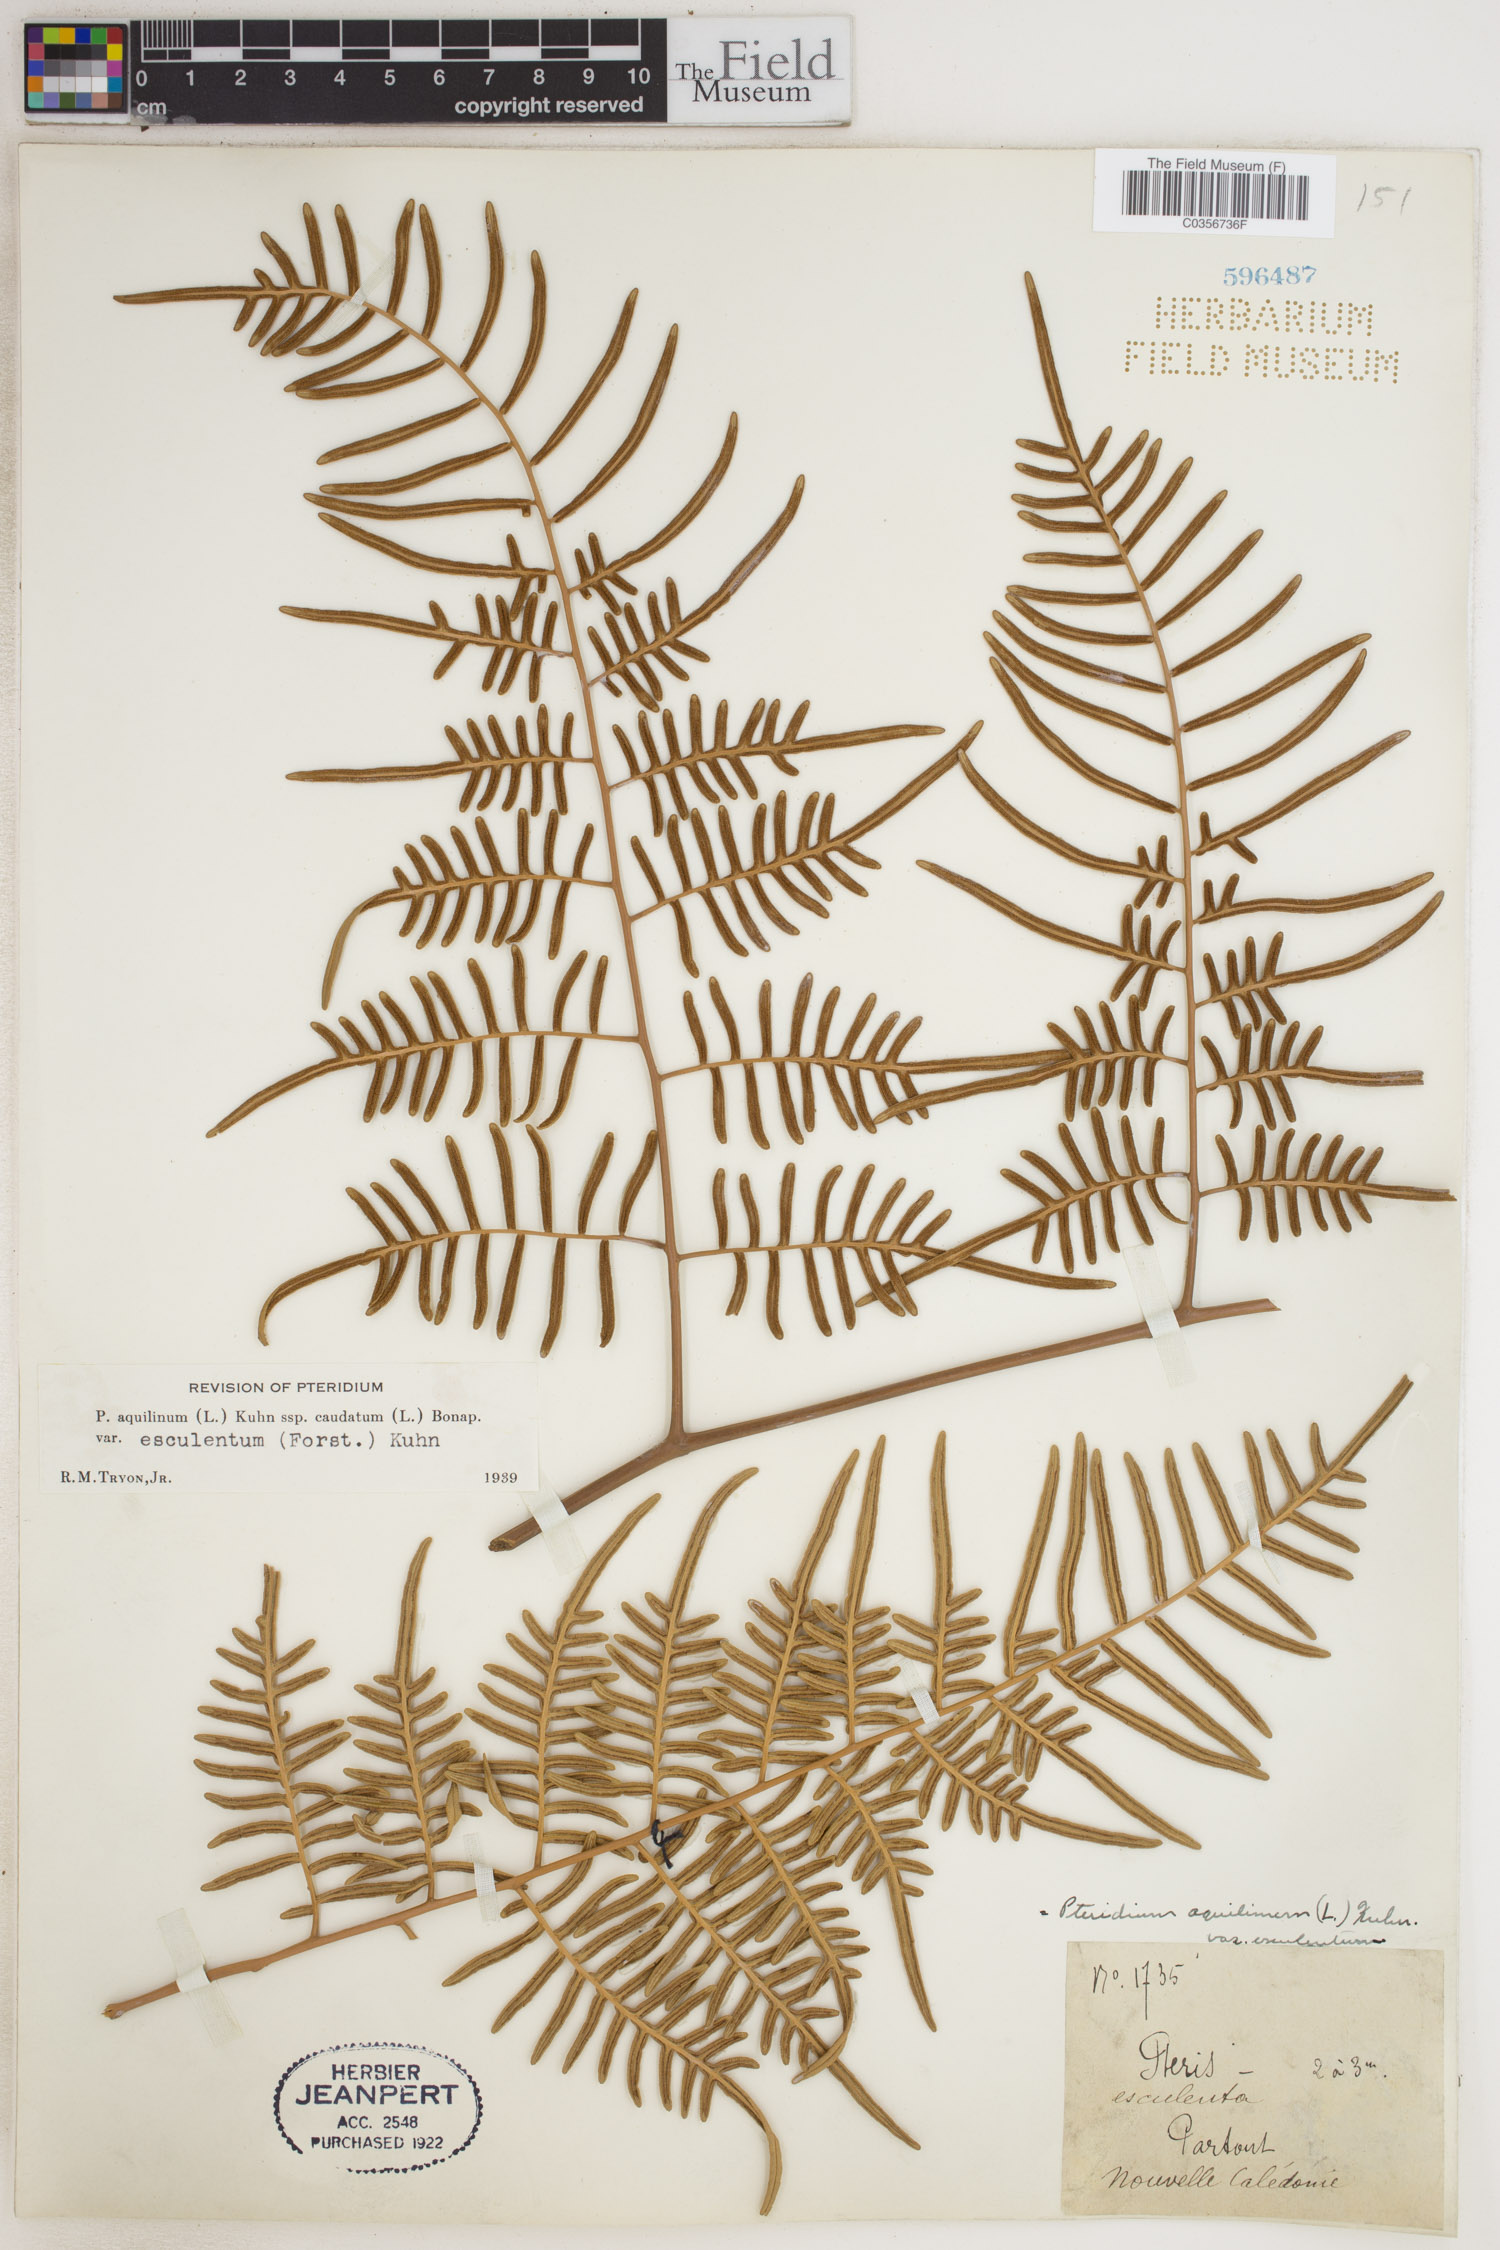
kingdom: Plantae
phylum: Tracheophyta
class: Polypodiopsida
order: Polypodiales
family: Dennstaedtiaceae
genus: Pteridium
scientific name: Pteridium aquilinum
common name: Bracken
